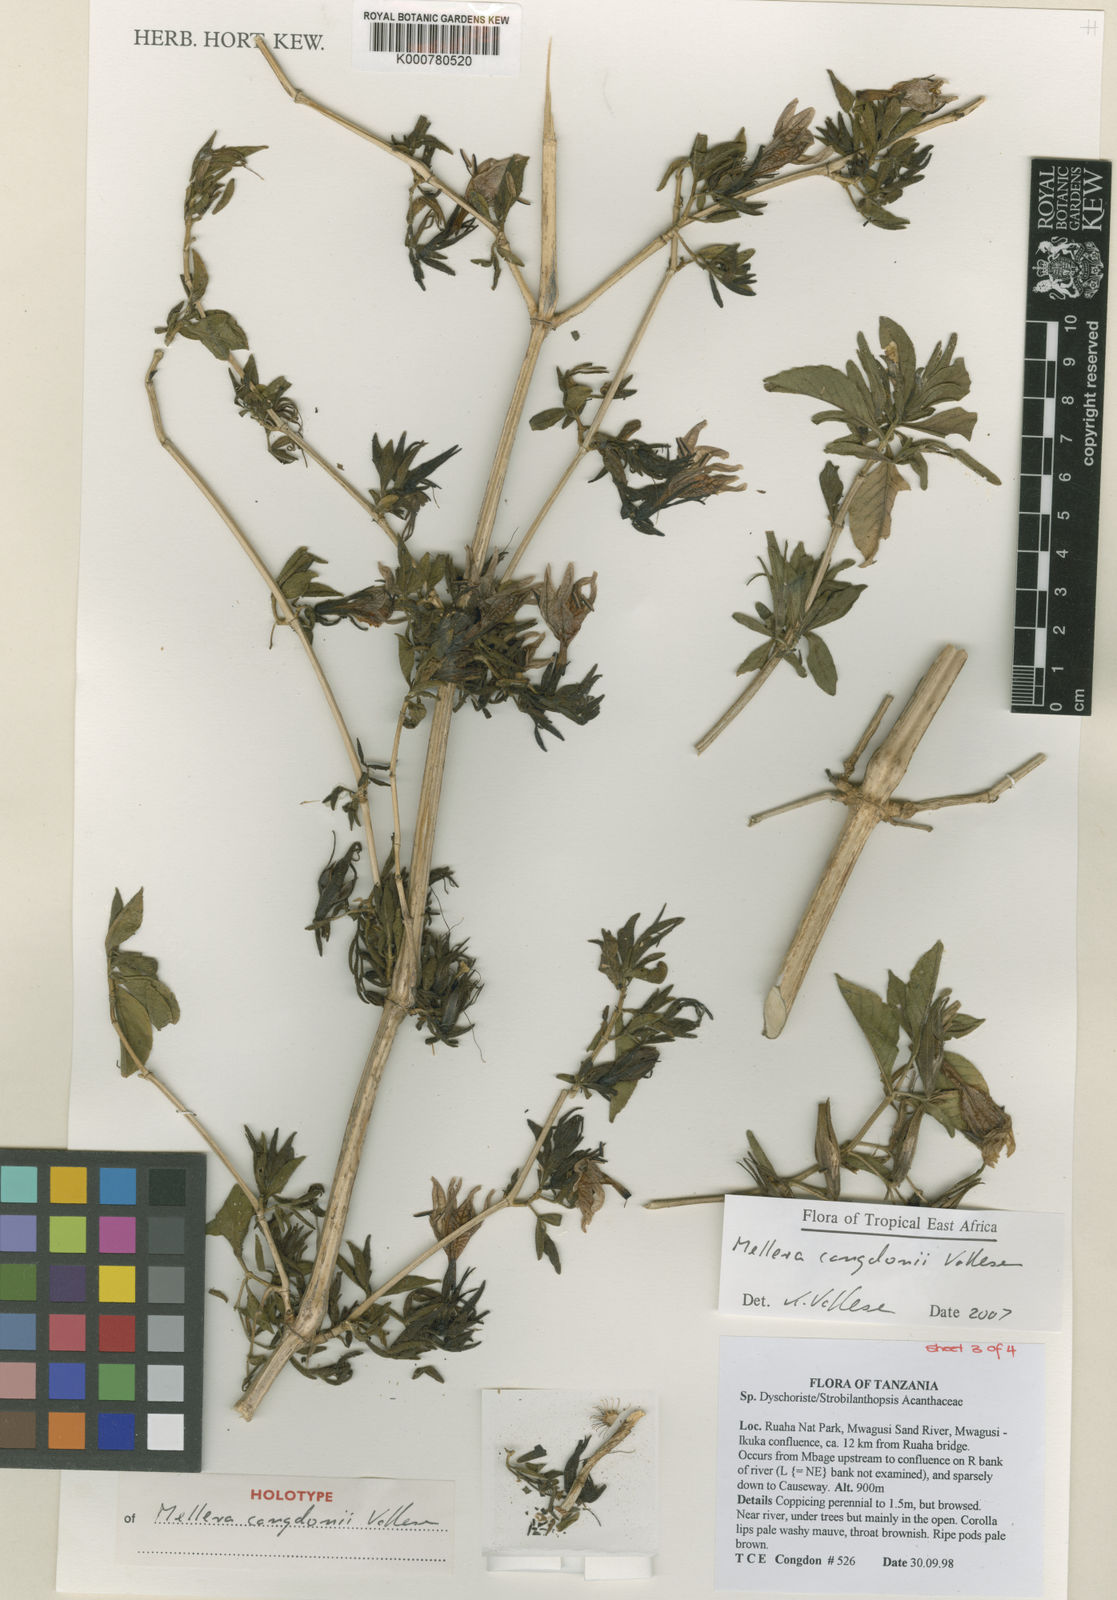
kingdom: Plantae
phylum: Tracheophyta
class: Magnoliopsida
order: Lamiales
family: Acanthaceae
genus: Mellera
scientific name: Mellera congdonii
